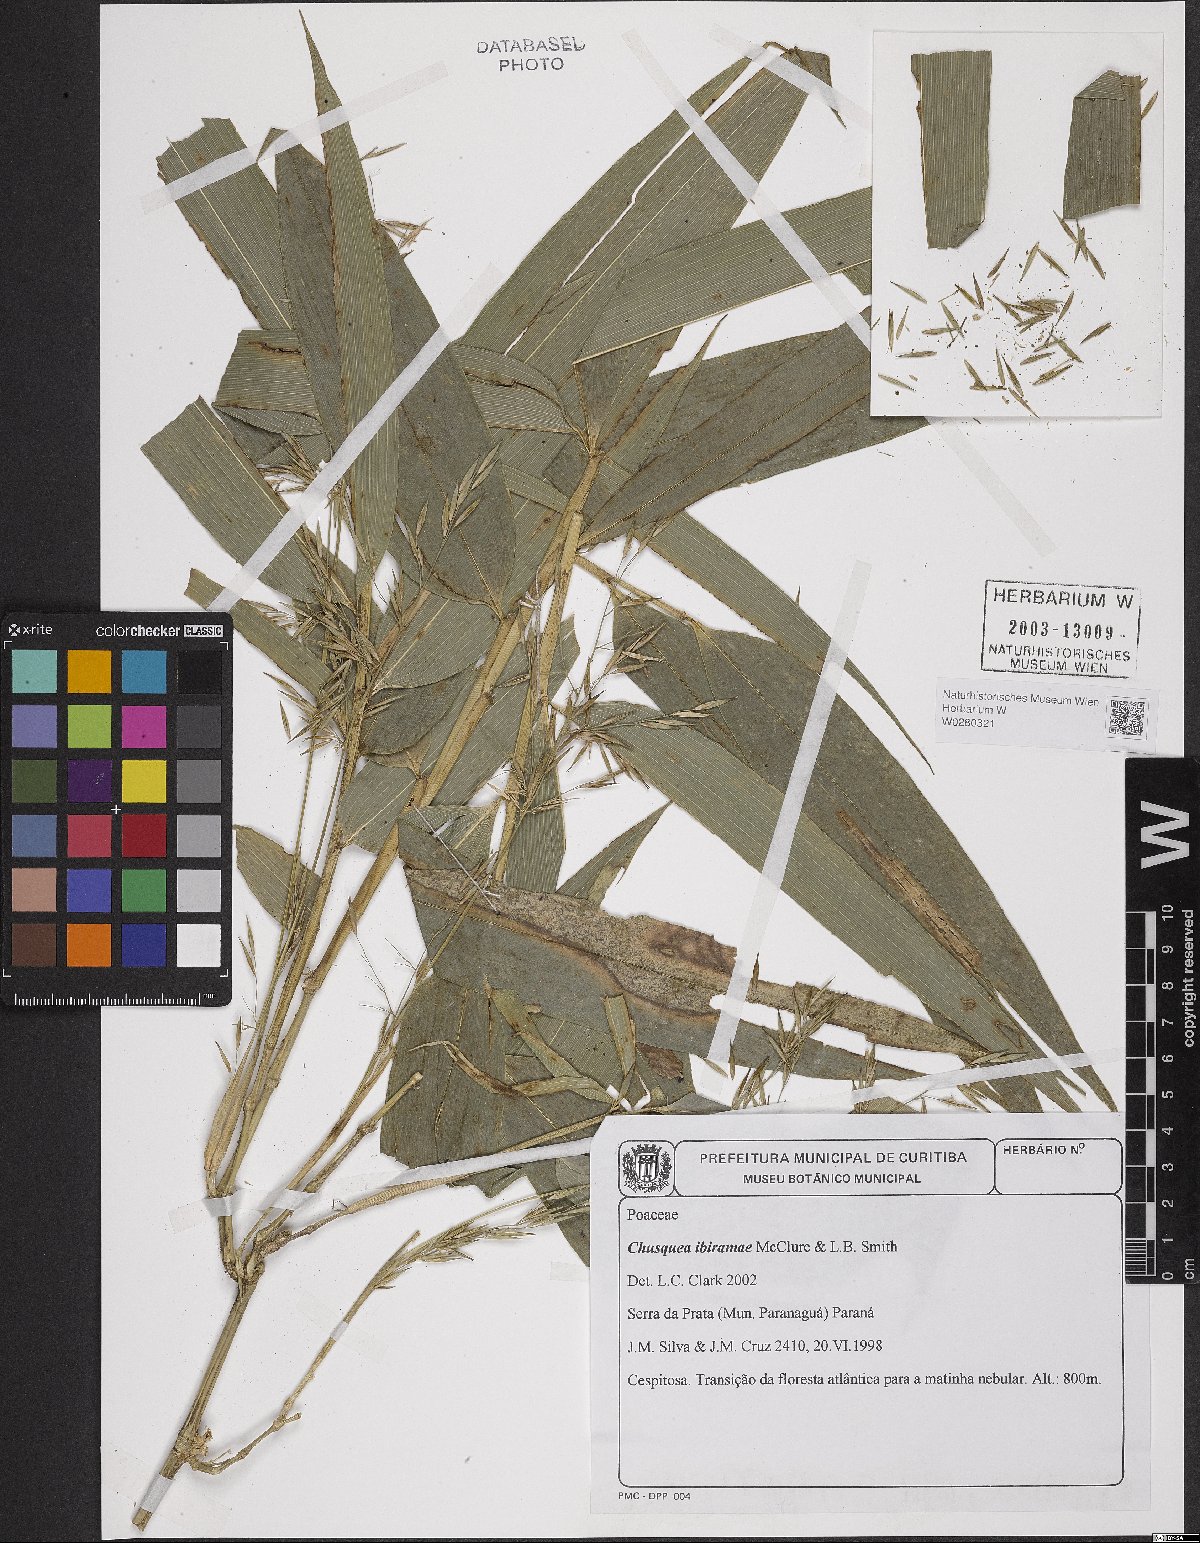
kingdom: Plantae
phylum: Tracheophyta
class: Liliopsida
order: Poales
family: Poaceae
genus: Chusquea
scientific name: Chusquea ibiramae
